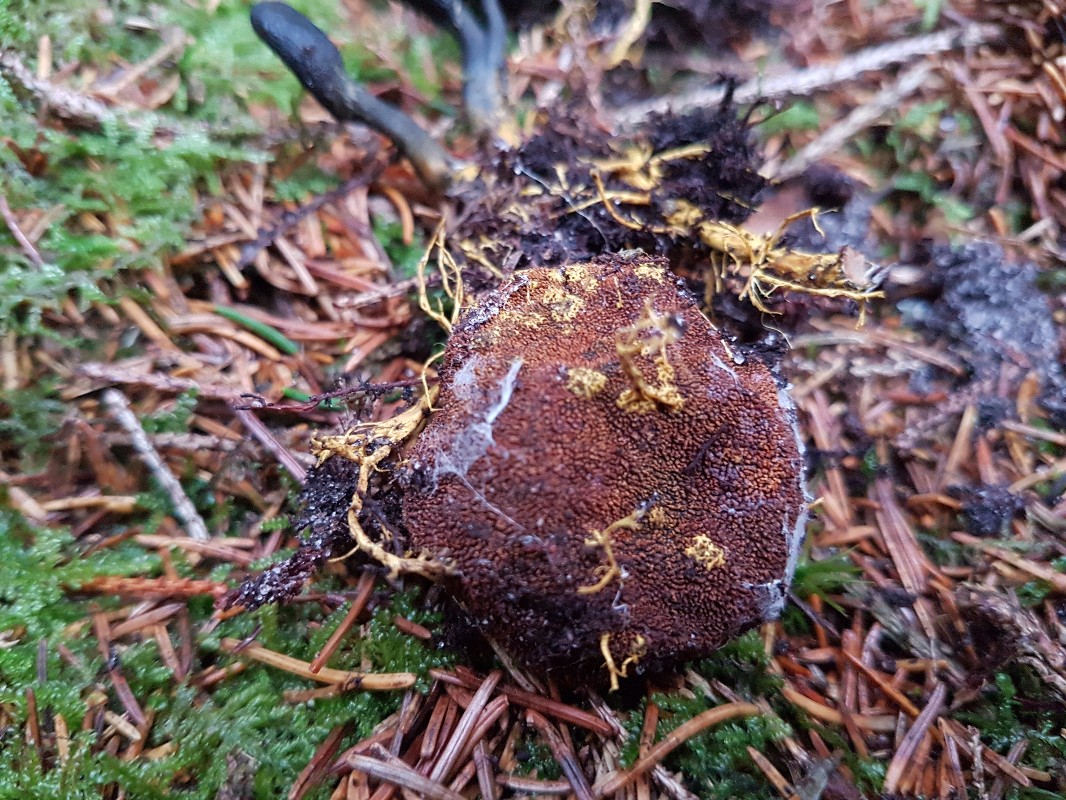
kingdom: Fungi
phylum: Ascomycota
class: Eurotiomycetes
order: Eurotiales
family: Elaphomycetaceae
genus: Elaphomyces
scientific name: Elaphomyces muricatus
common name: vortet hjortetrøffel
